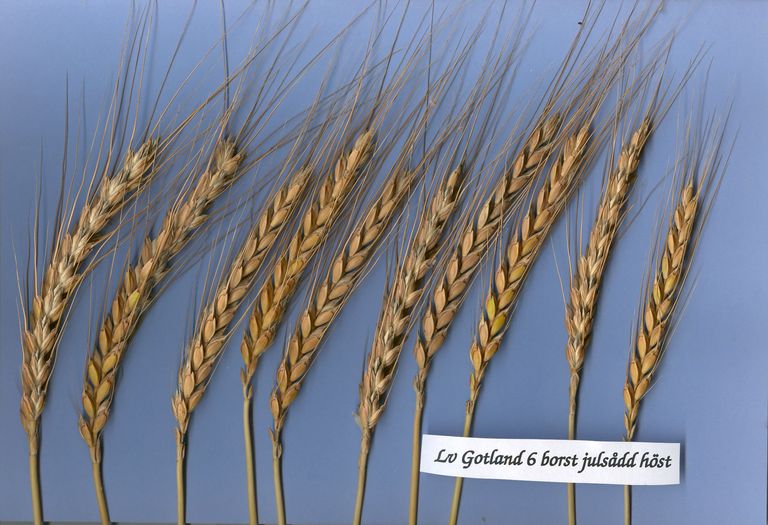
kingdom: Plantae
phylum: Tracheophyta
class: Liliopsida
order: Poales
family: Poaceae
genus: Triticum
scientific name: Triticum aestivum
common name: Common wheat
